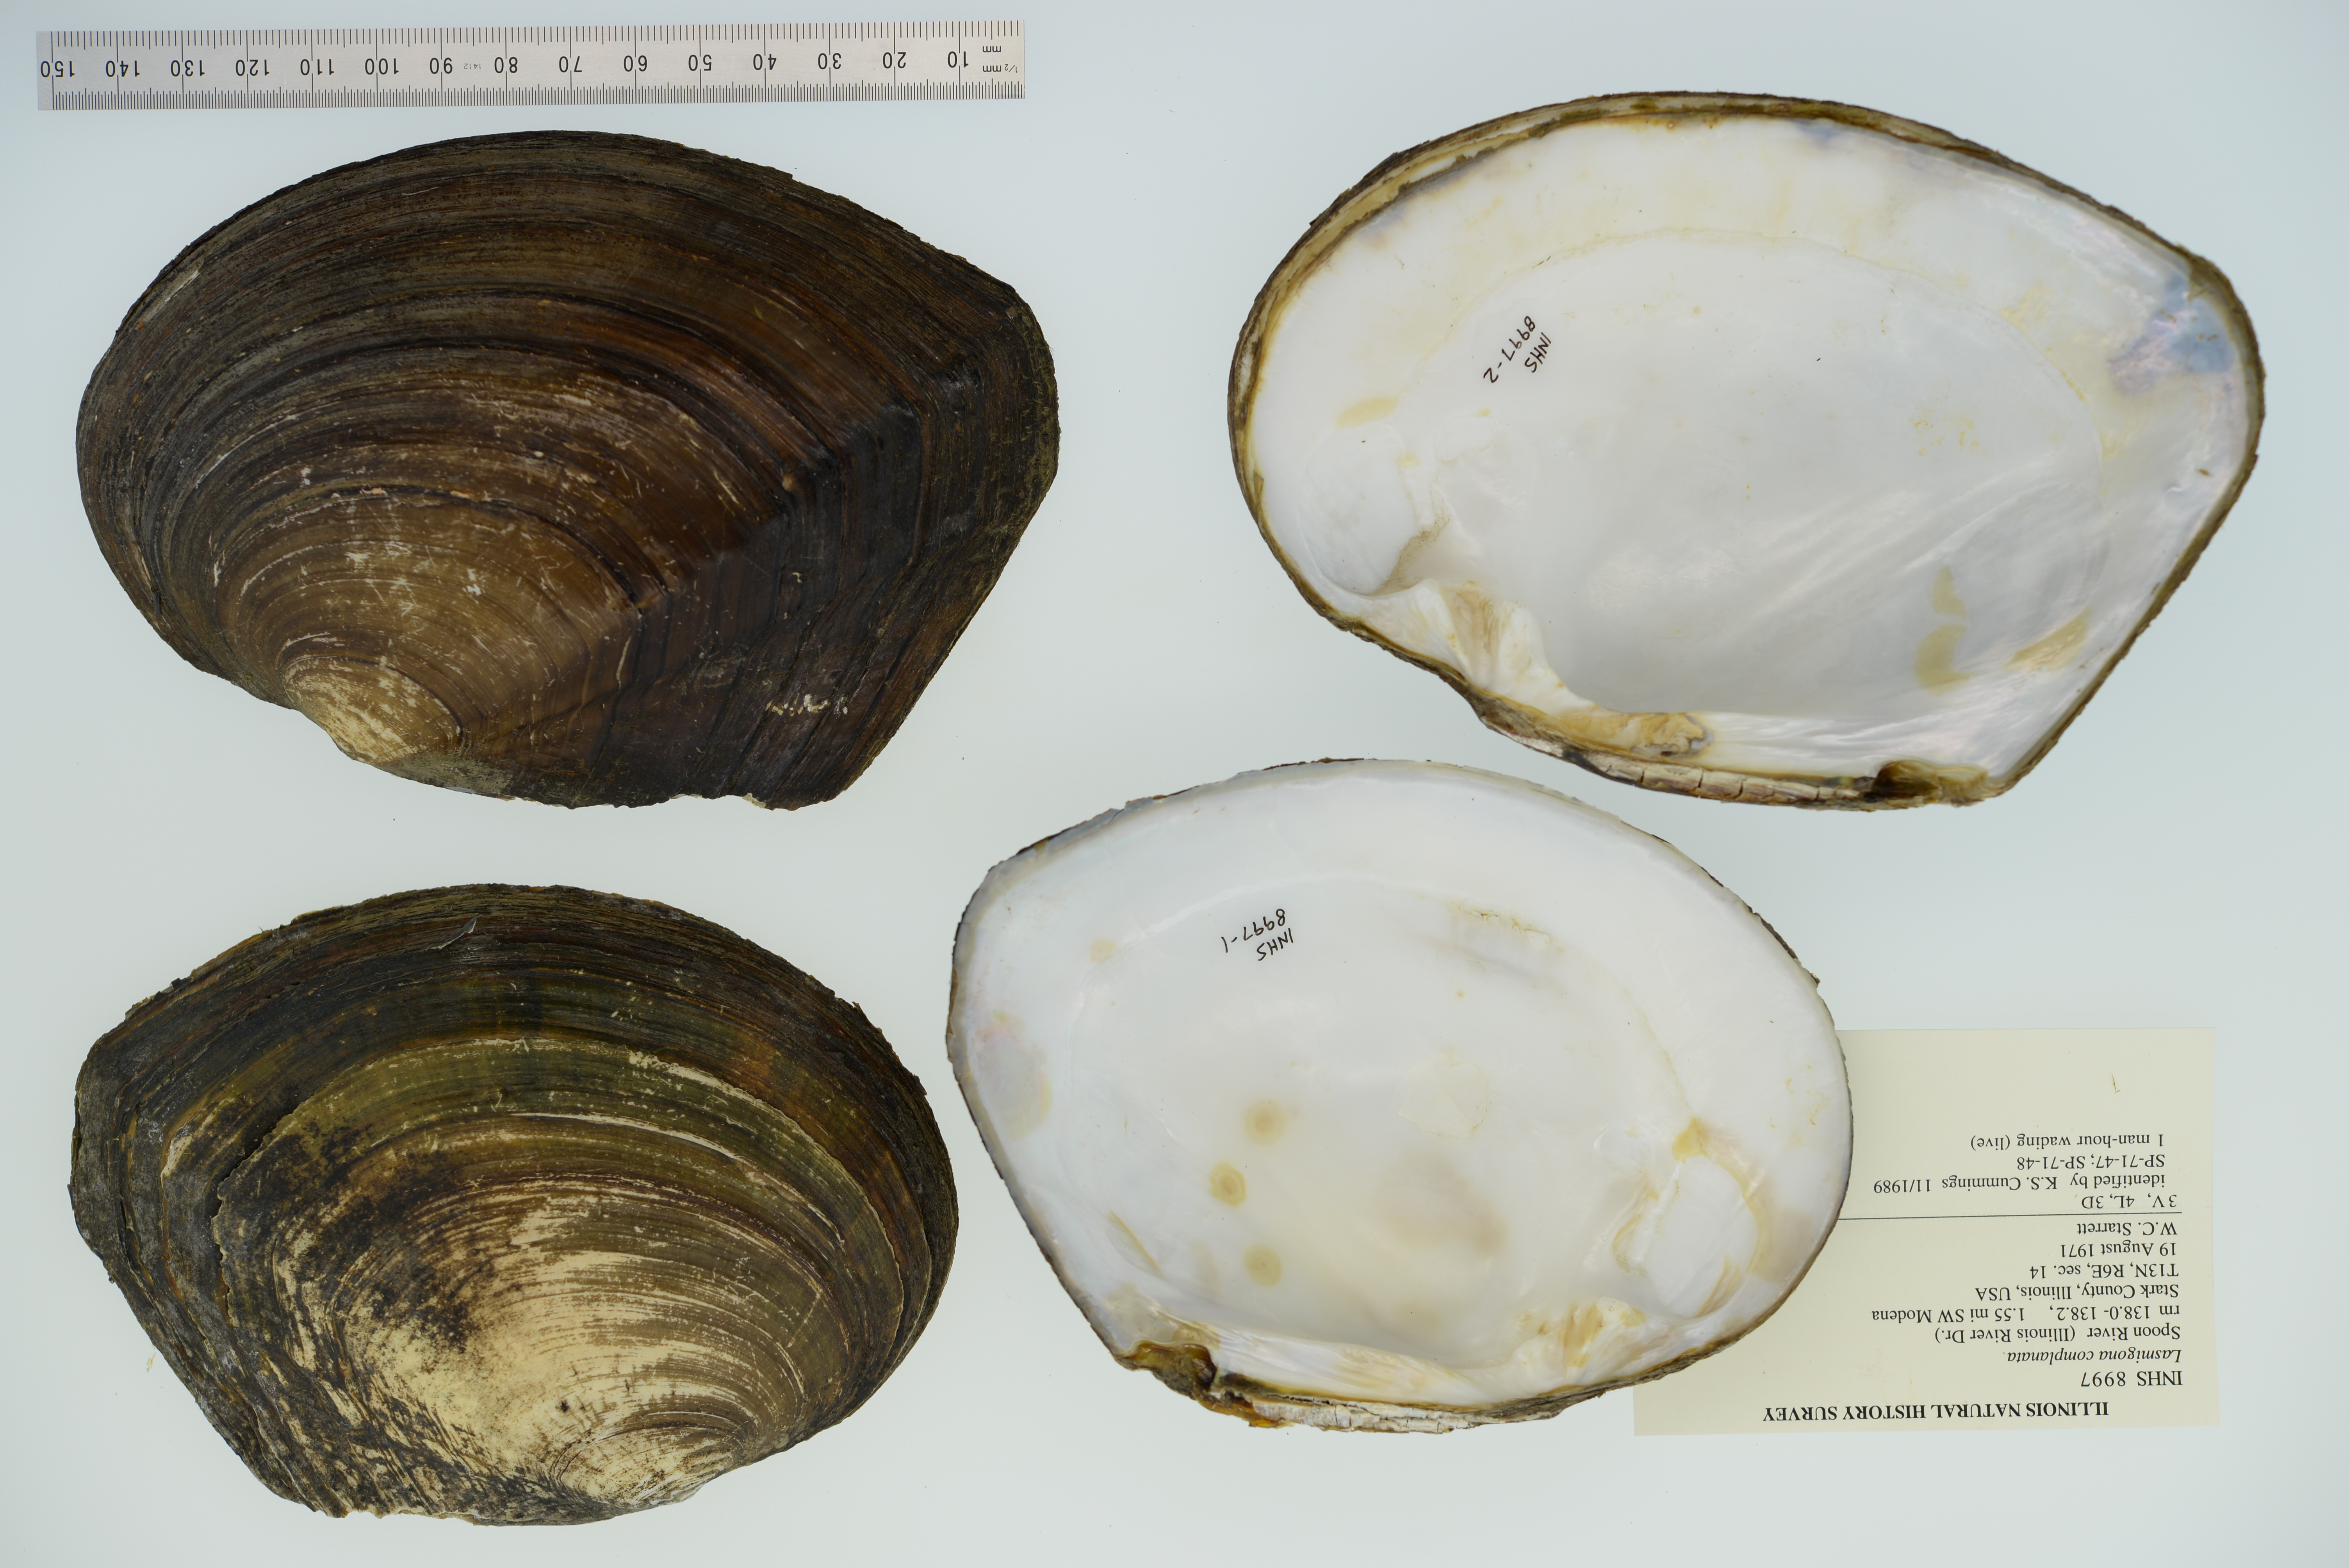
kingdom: Animalia
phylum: Mollusca
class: Bivalvia
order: Unionida
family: Unionidae
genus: Lasmigona
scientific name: Lasmigona complanata
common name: White heelsplitter
